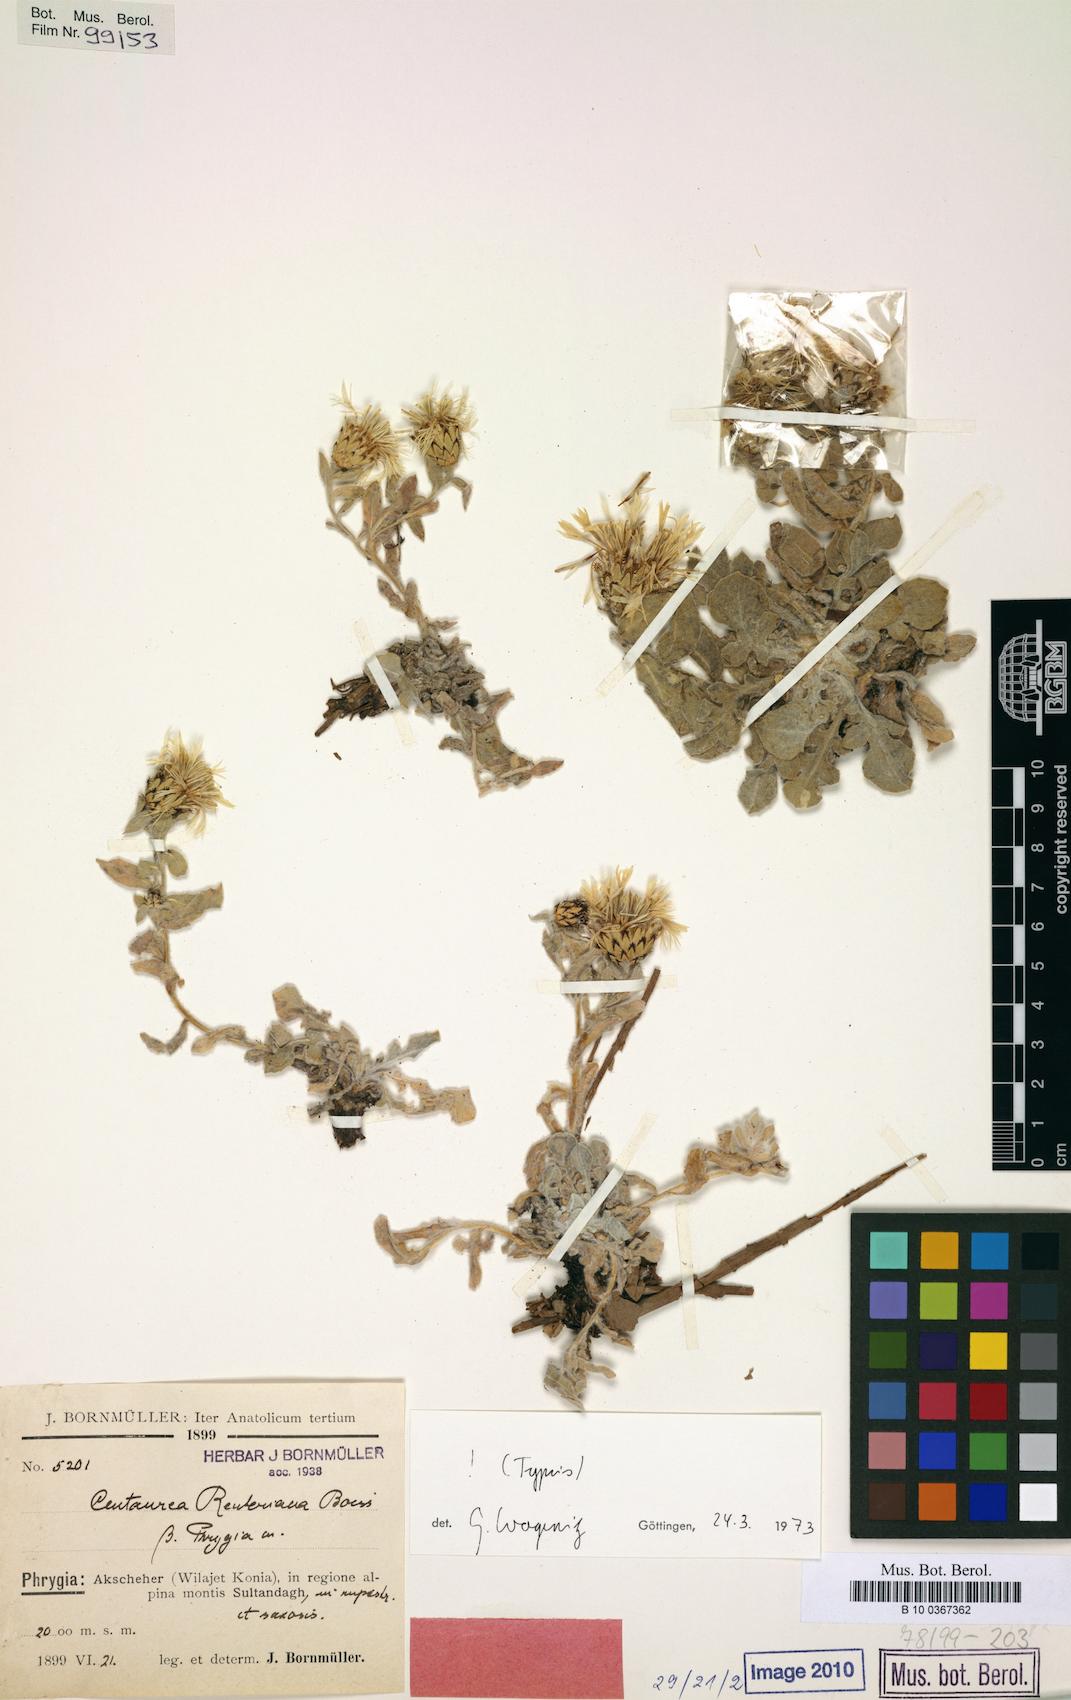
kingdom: Plantae
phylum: Tracheophyta
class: Magnoliopsida
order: Asterales
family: Asteraceae
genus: Centaurea
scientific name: Centaurea reuteriana
